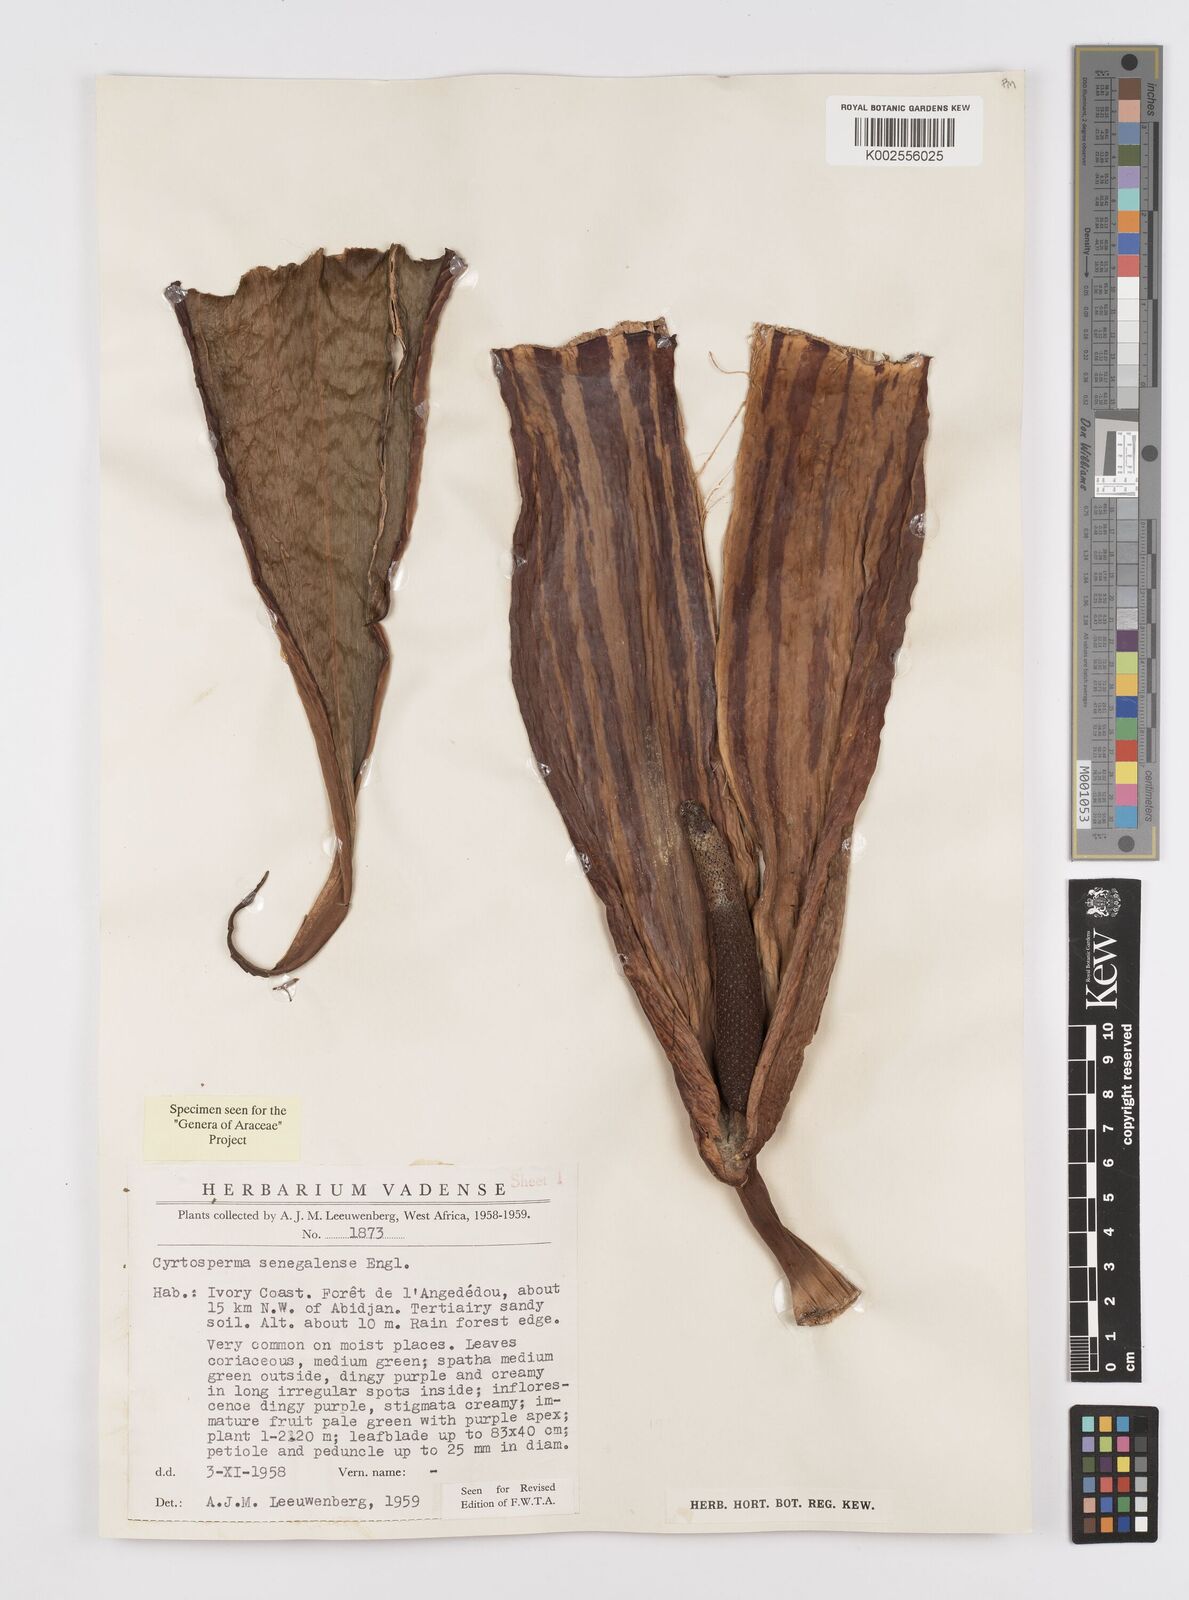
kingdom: Plantae
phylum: Tracheophyta
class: Liliopsida
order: Alismatales
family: Araceae
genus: Lasimorpha
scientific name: Lasimorpha senegalensis
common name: Swamp arum
